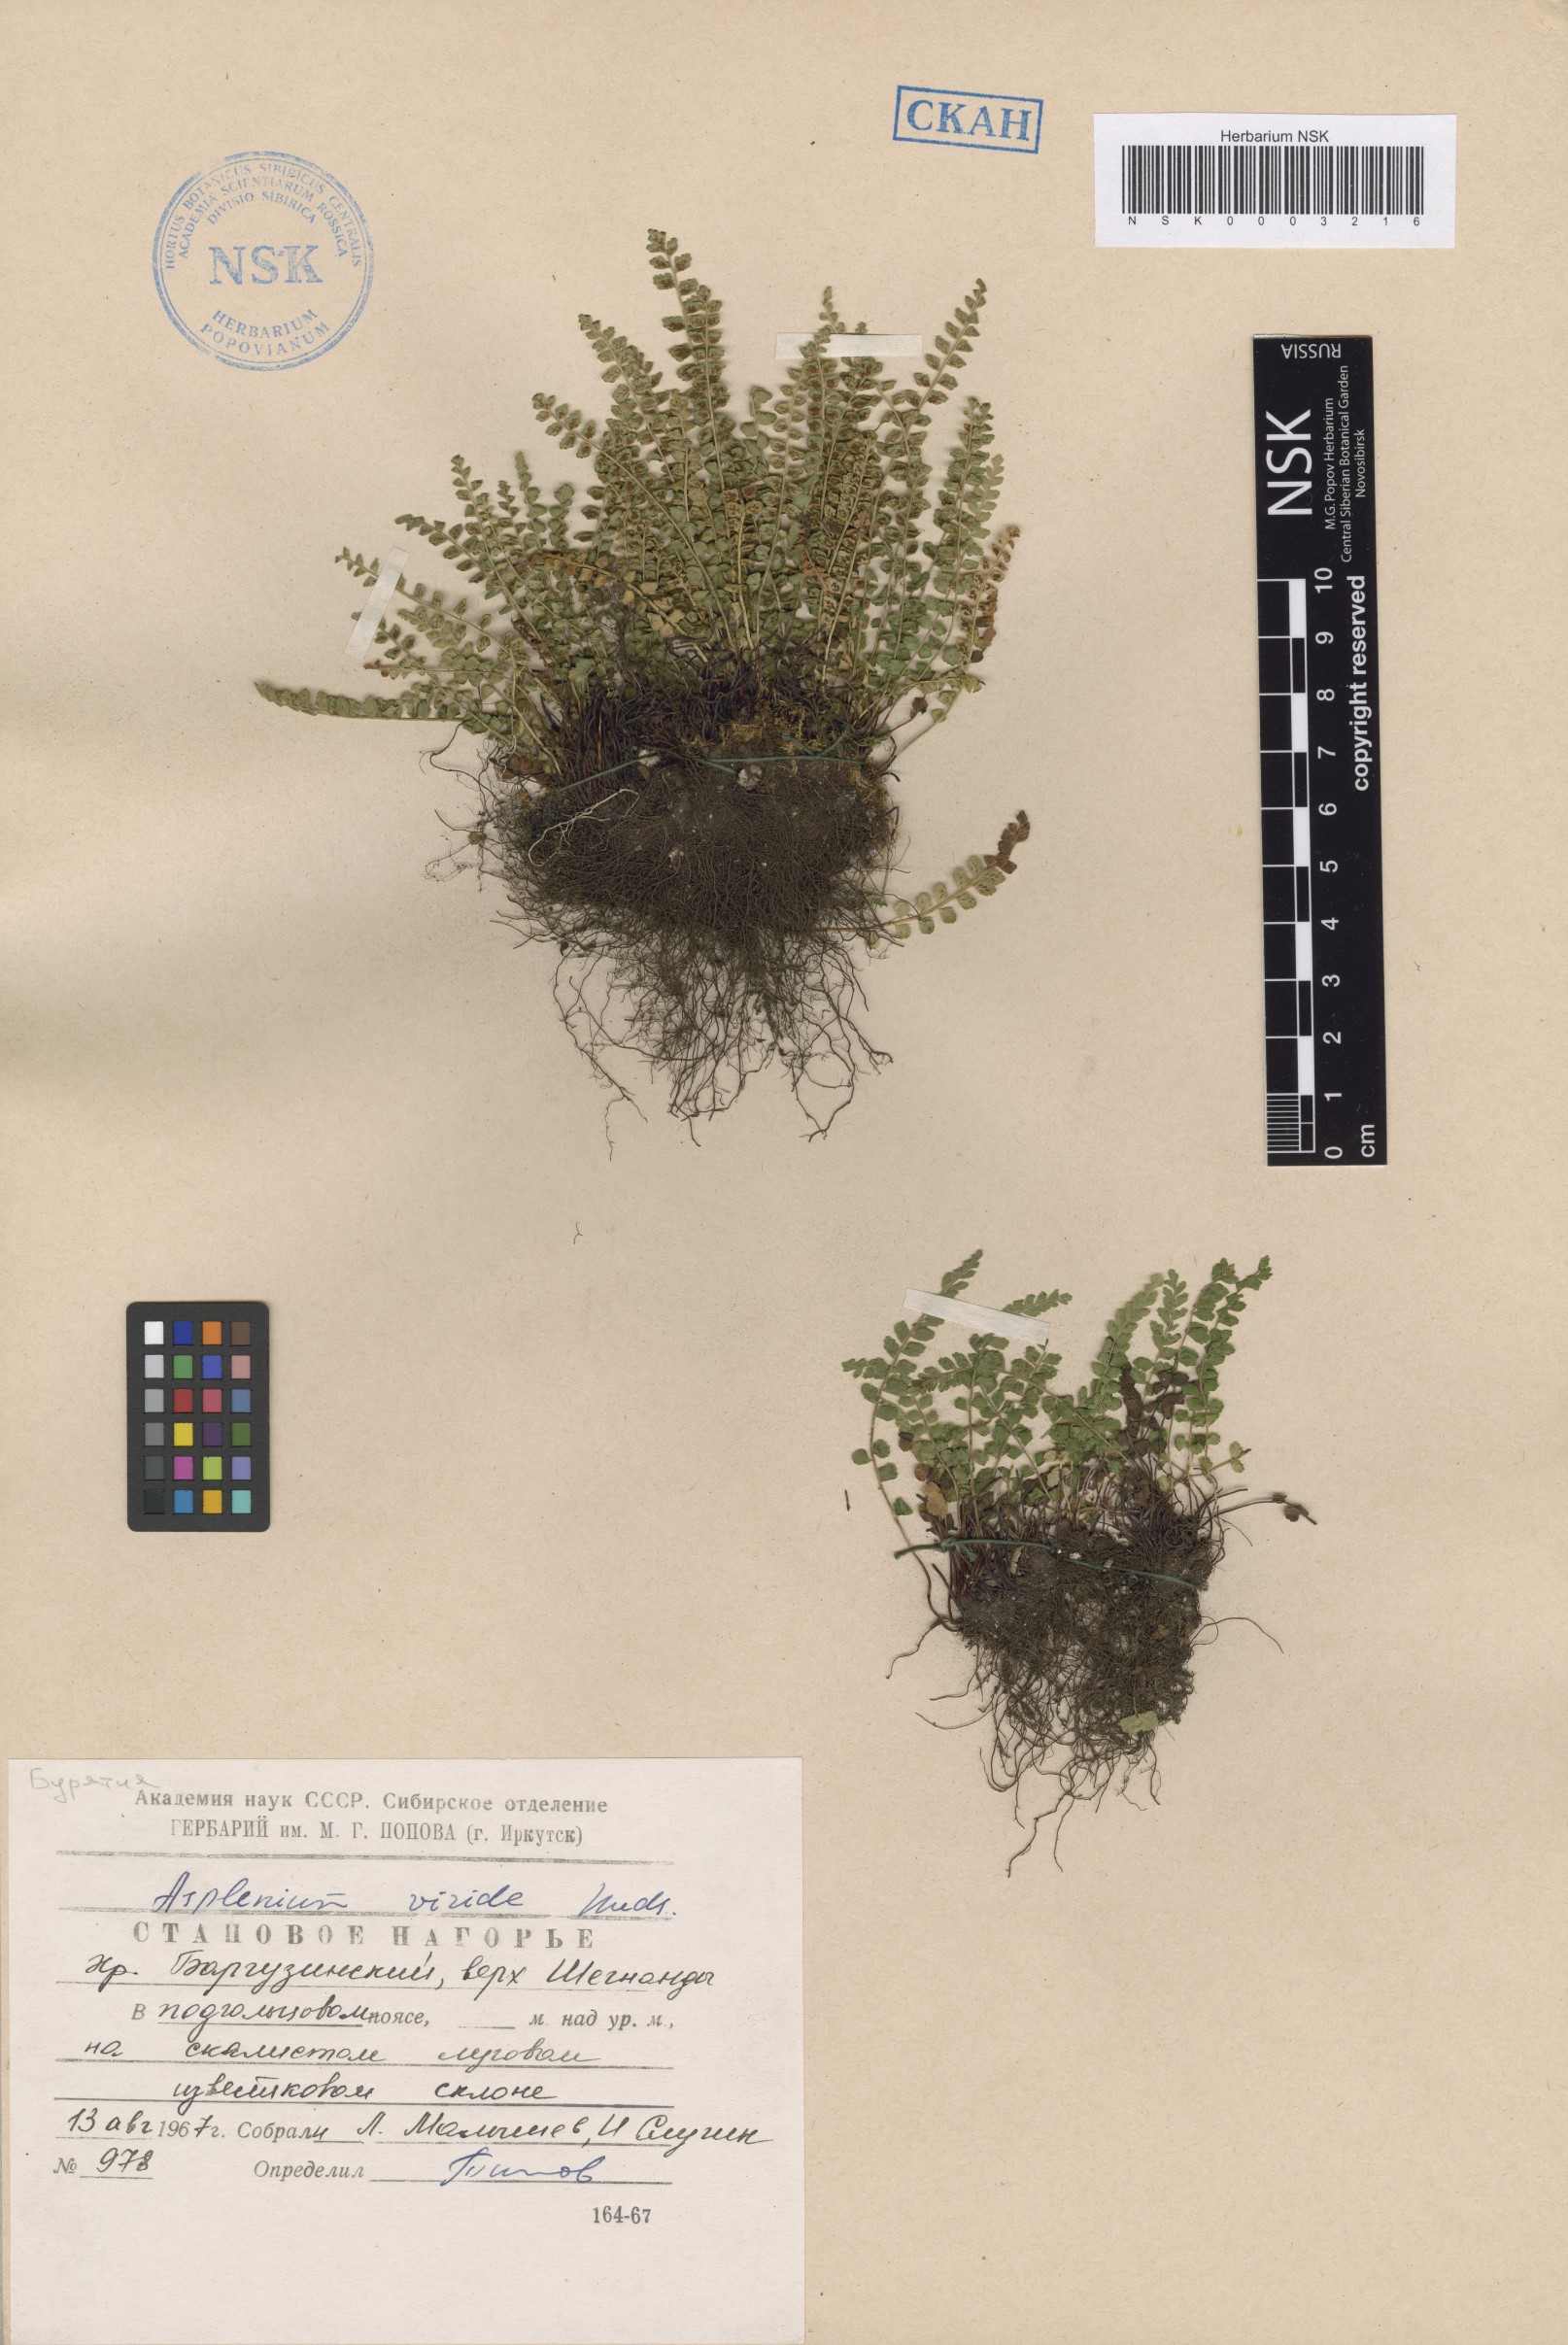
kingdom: Plantae
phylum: Tracheophyta
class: Polypodiopsida
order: Polypodiales
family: Aspleniaceae
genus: Asplenium
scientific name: Asplenium viride
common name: Green spleenwort
